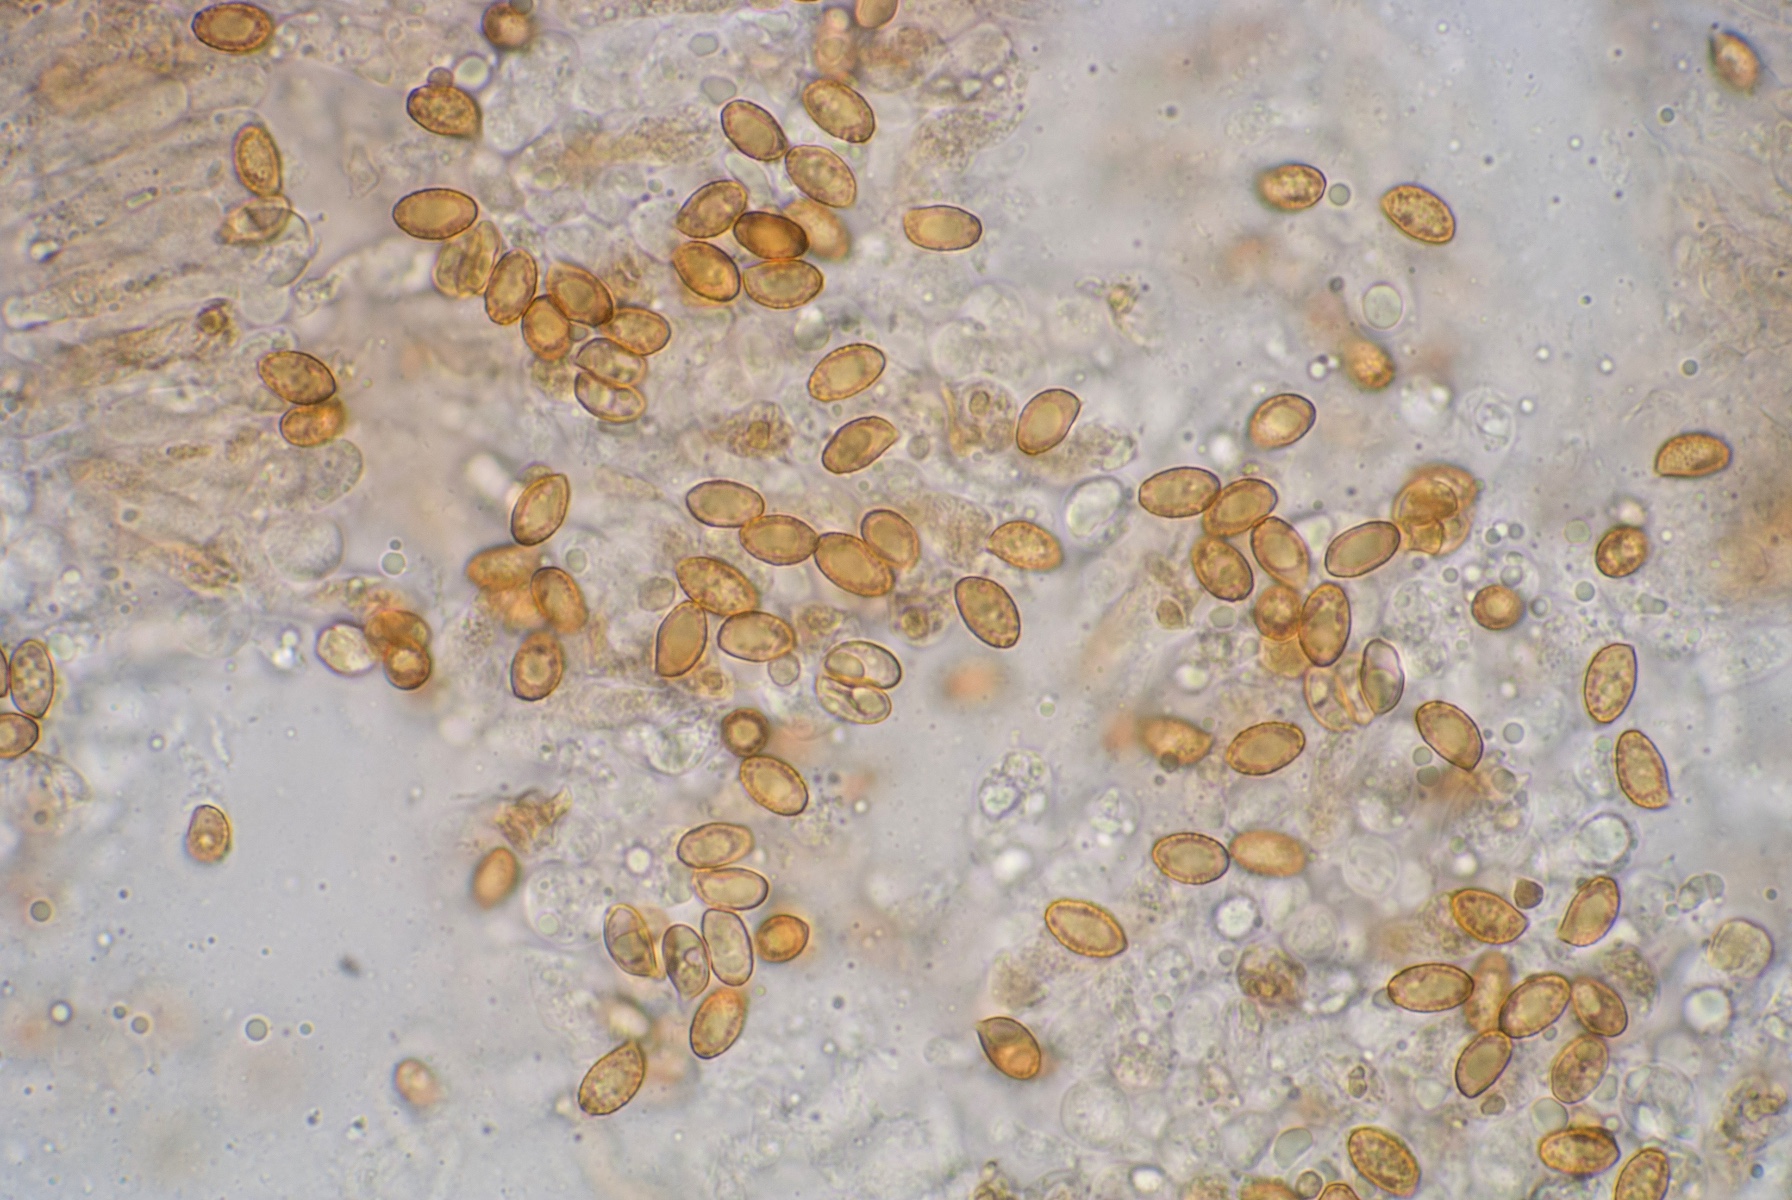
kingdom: Fungi
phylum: Basidiomycota
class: Agaricomycetes
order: Agaricales
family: Cortinariaceae
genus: Cortinarius
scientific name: Cortinarius glaphurus
